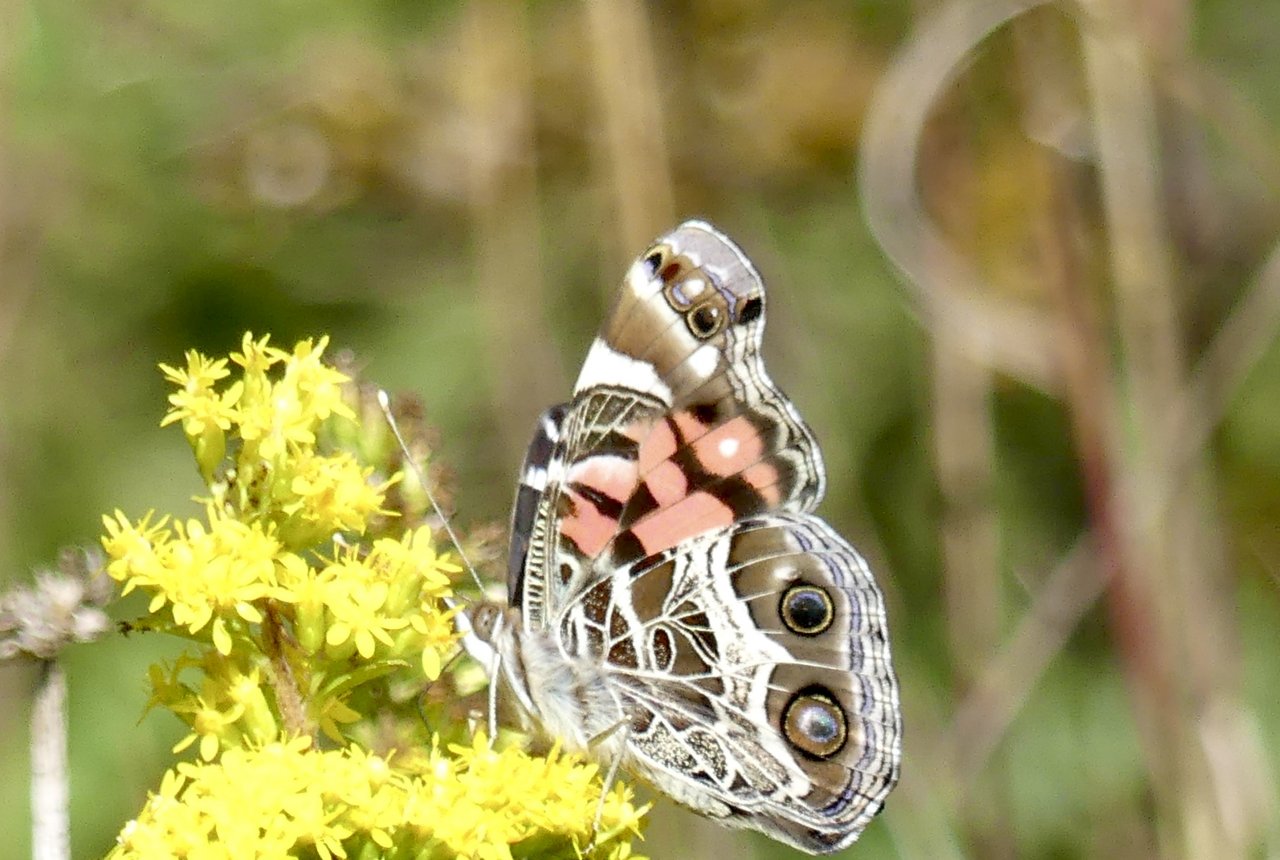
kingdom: Animalia
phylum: Arthropoda
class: Insecta
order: Lepidoptera
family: Nymphalidae
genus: Vanessa
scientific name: Vanessa virginiensis
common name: American Lady
